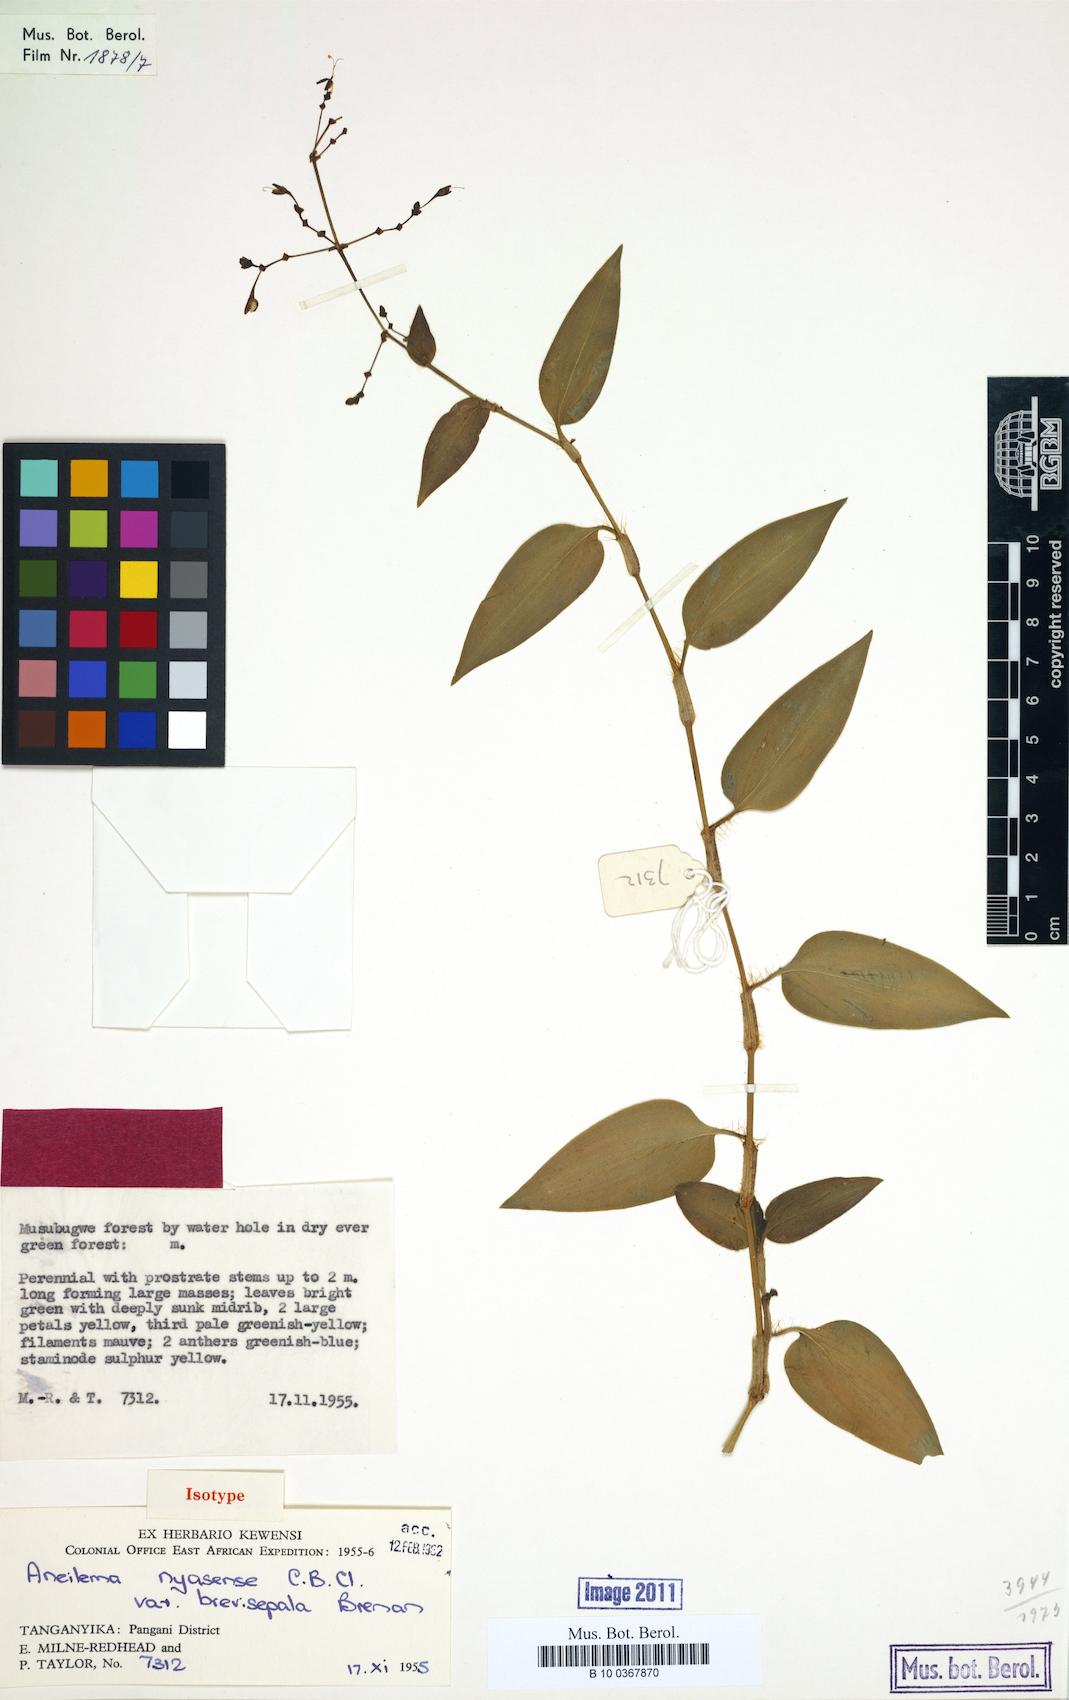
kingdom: Plantae
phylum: Tracheophyta
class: Liliopsida
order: Commelinales
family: Commelinaceae
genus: Aneilema
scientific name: Aneilema nyasense
